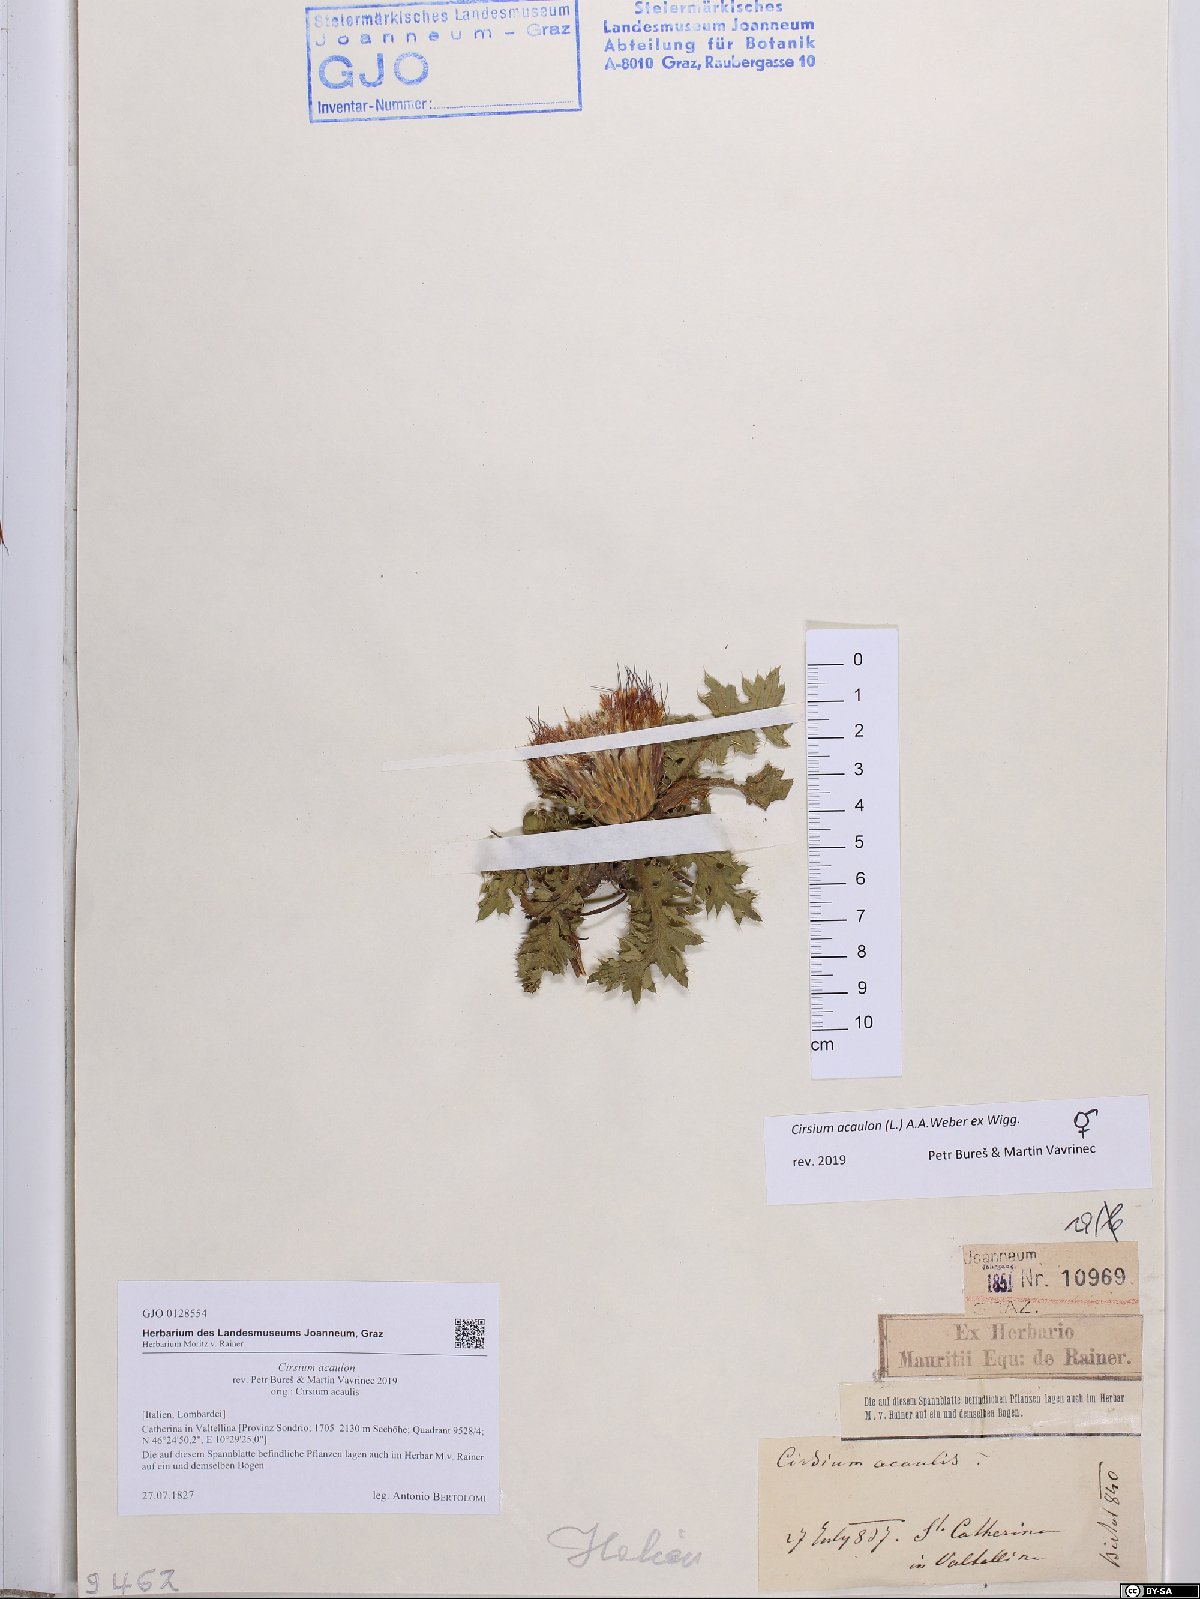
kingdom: Plantae
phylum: Tracheophyta
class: Magnoliopsida
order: Asterales
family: Asteraceae
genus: Cirsium
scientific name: Cirsium acaulon
